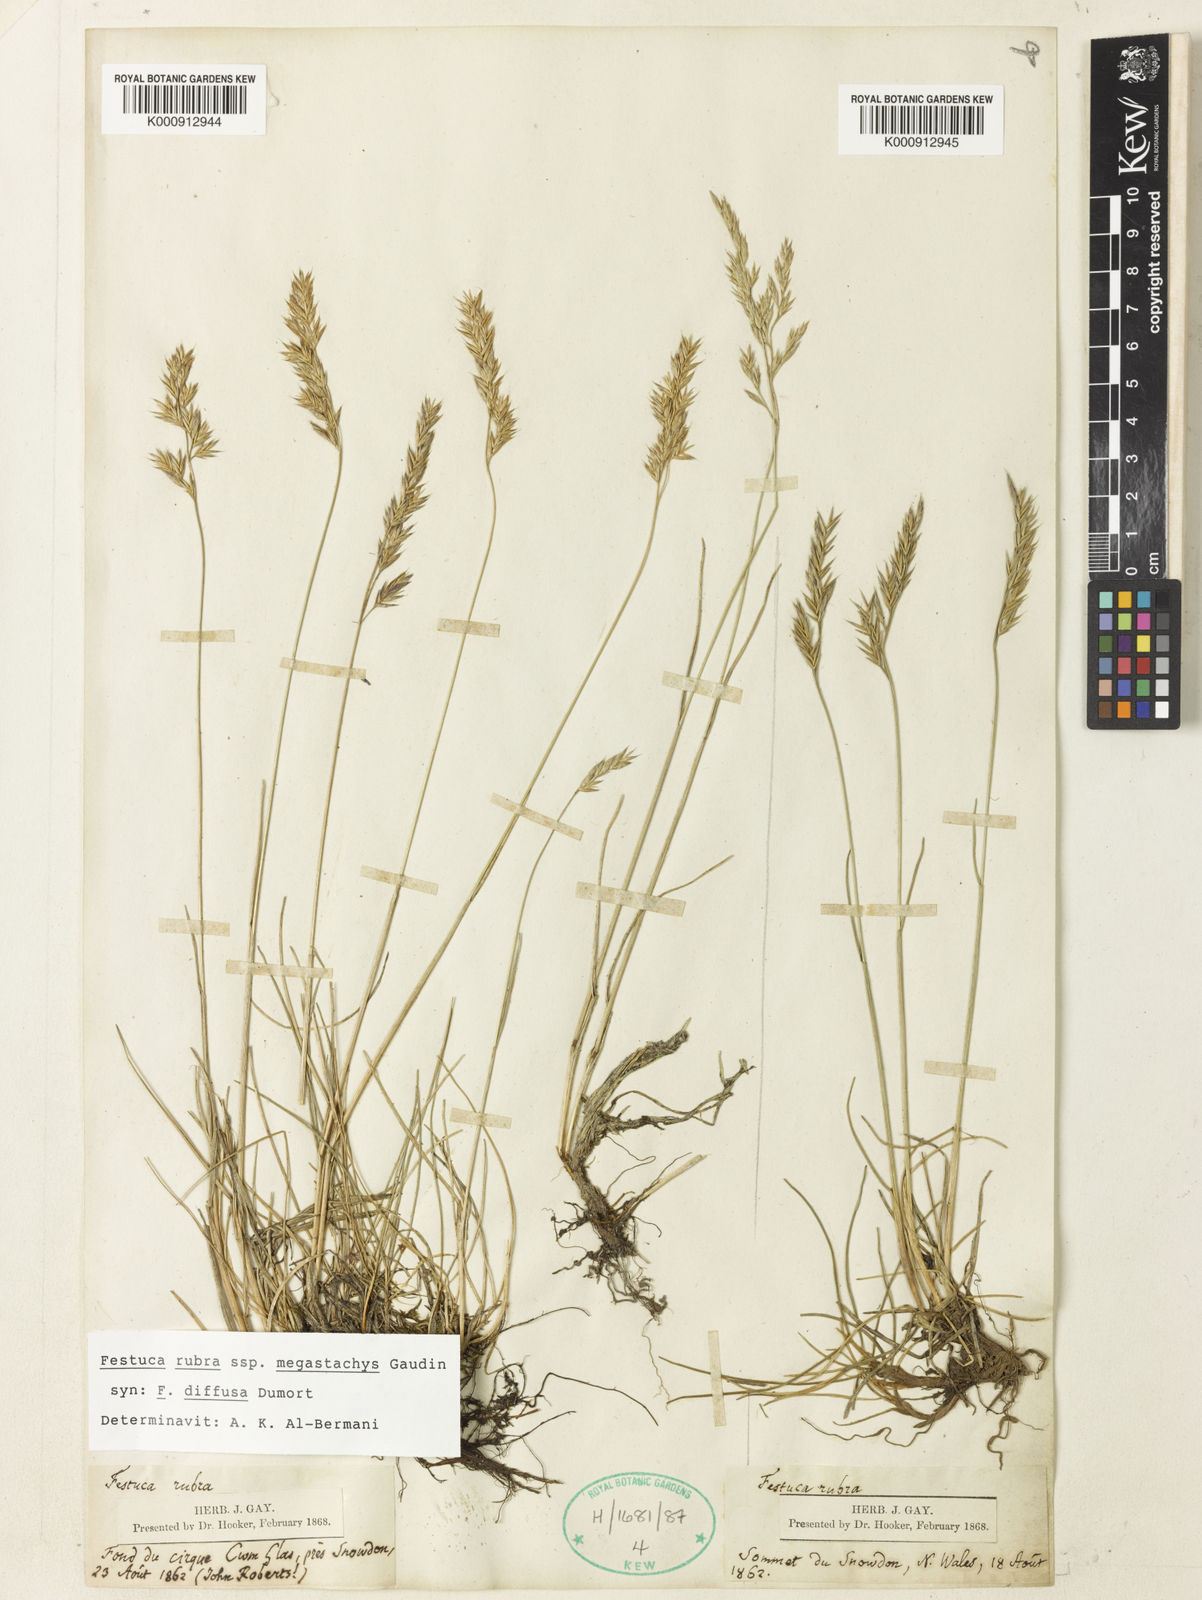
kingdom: Plantae
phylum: Tracheophyta
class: Liliopsida
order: Poales
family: Poaceae
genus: Festuca
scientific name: Festuca rubra
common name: Red fescue
